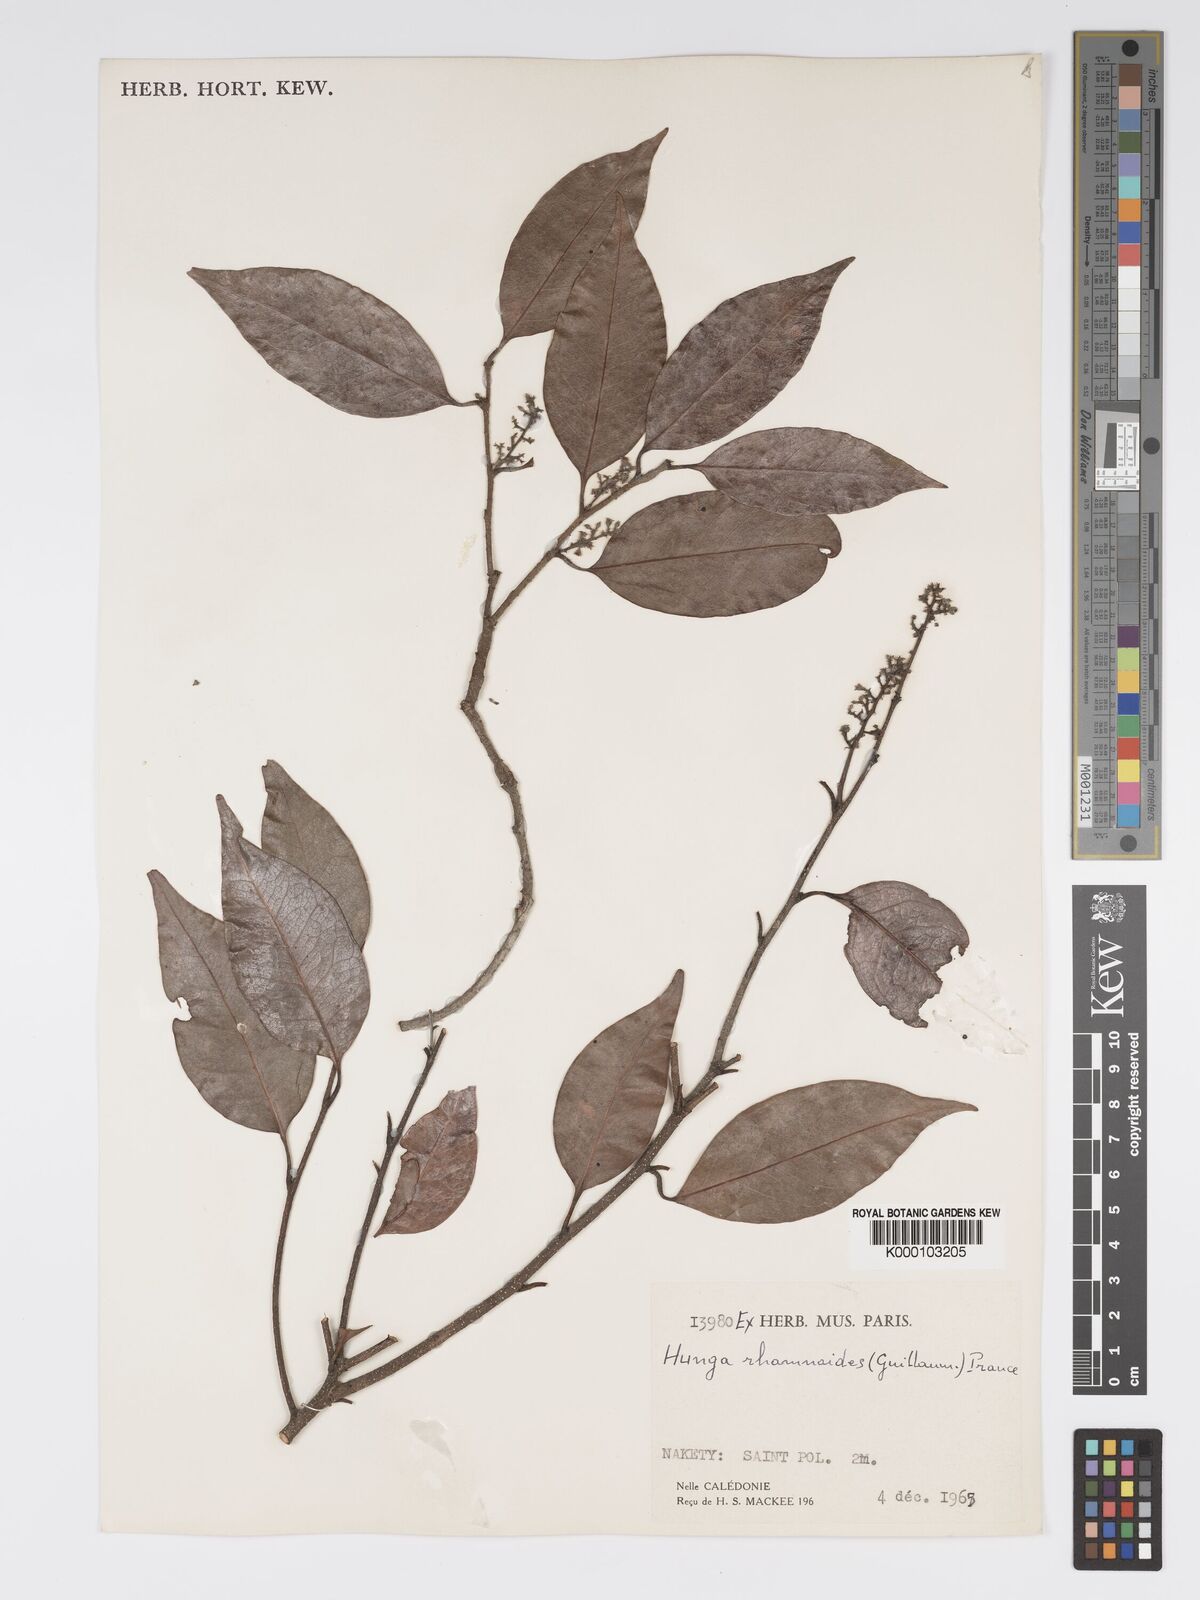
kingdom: Plantae
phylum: Tracheophyta
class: Magnoliopsida
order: Malpighiales
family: Chrysobalanaceae
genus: Hunga
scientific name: Hunga rhamnoides
